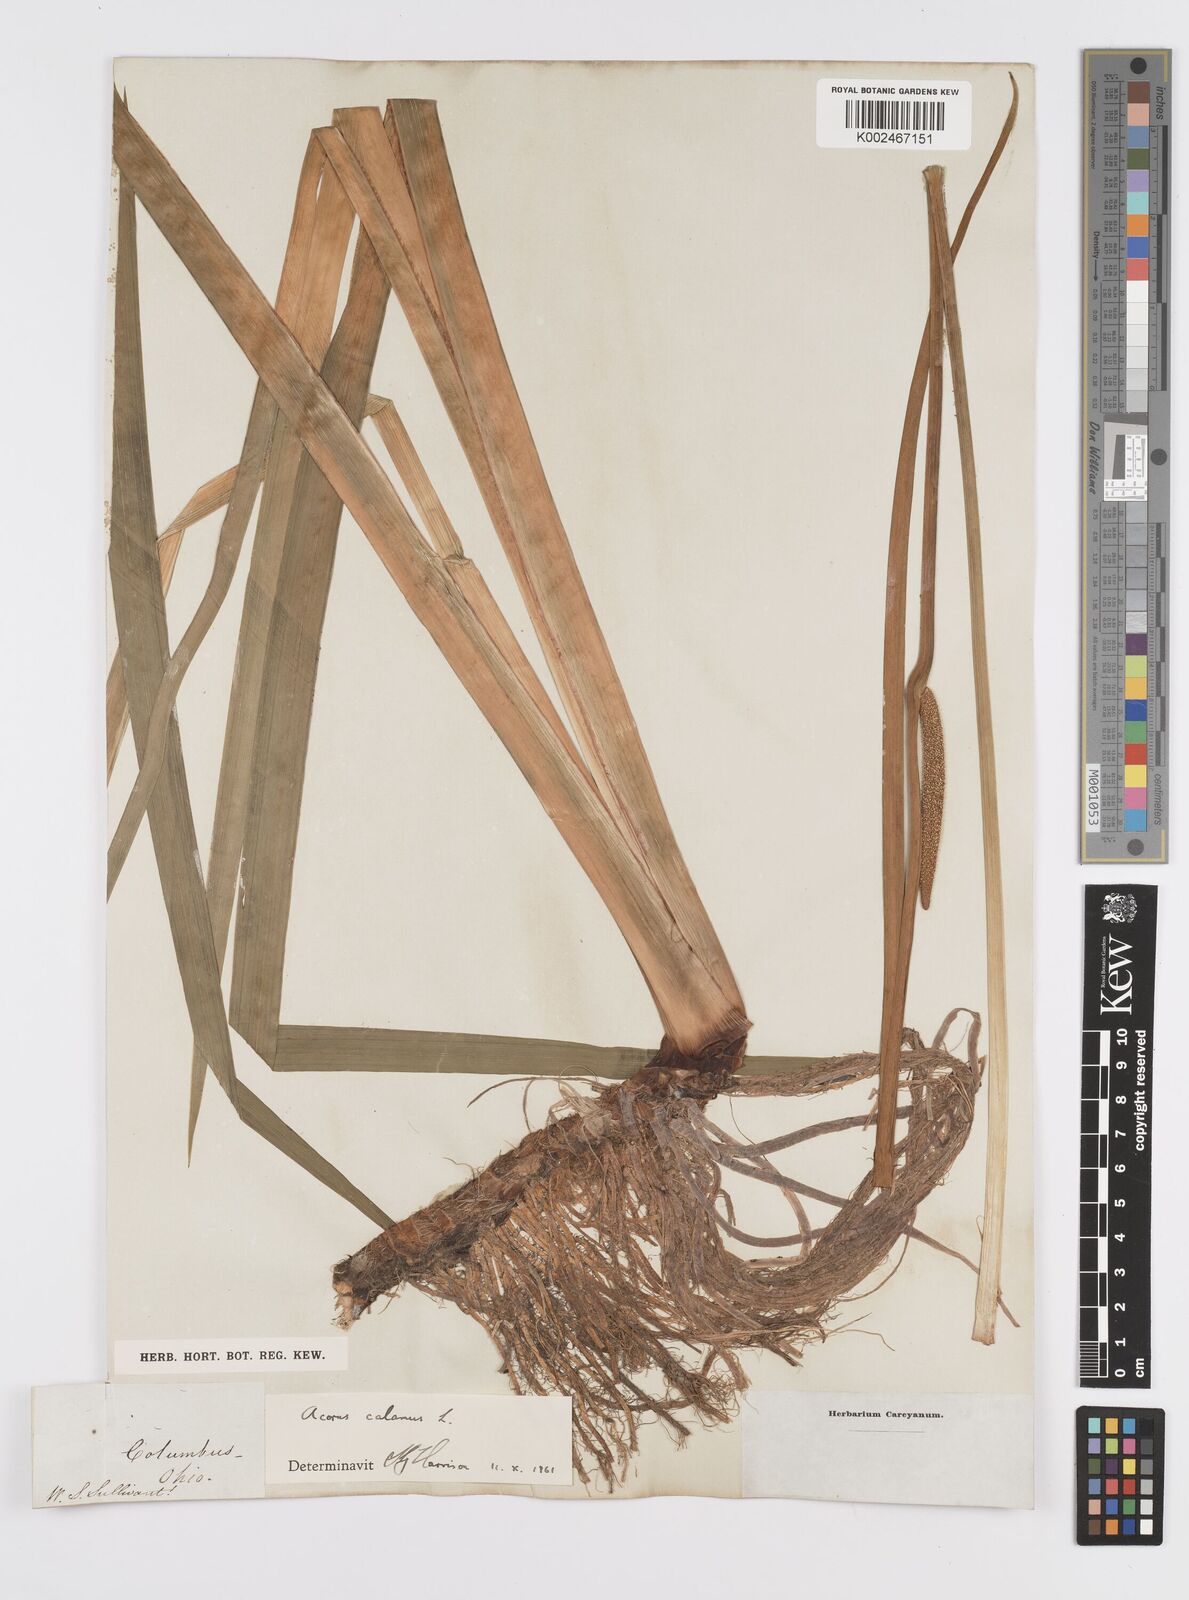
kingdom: Plantae
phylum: Tracheophyta
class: Liliopsida
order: Acorales
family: Acoraceae
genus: Acorus
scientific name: Acorus calamus
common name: Sweet-flag
